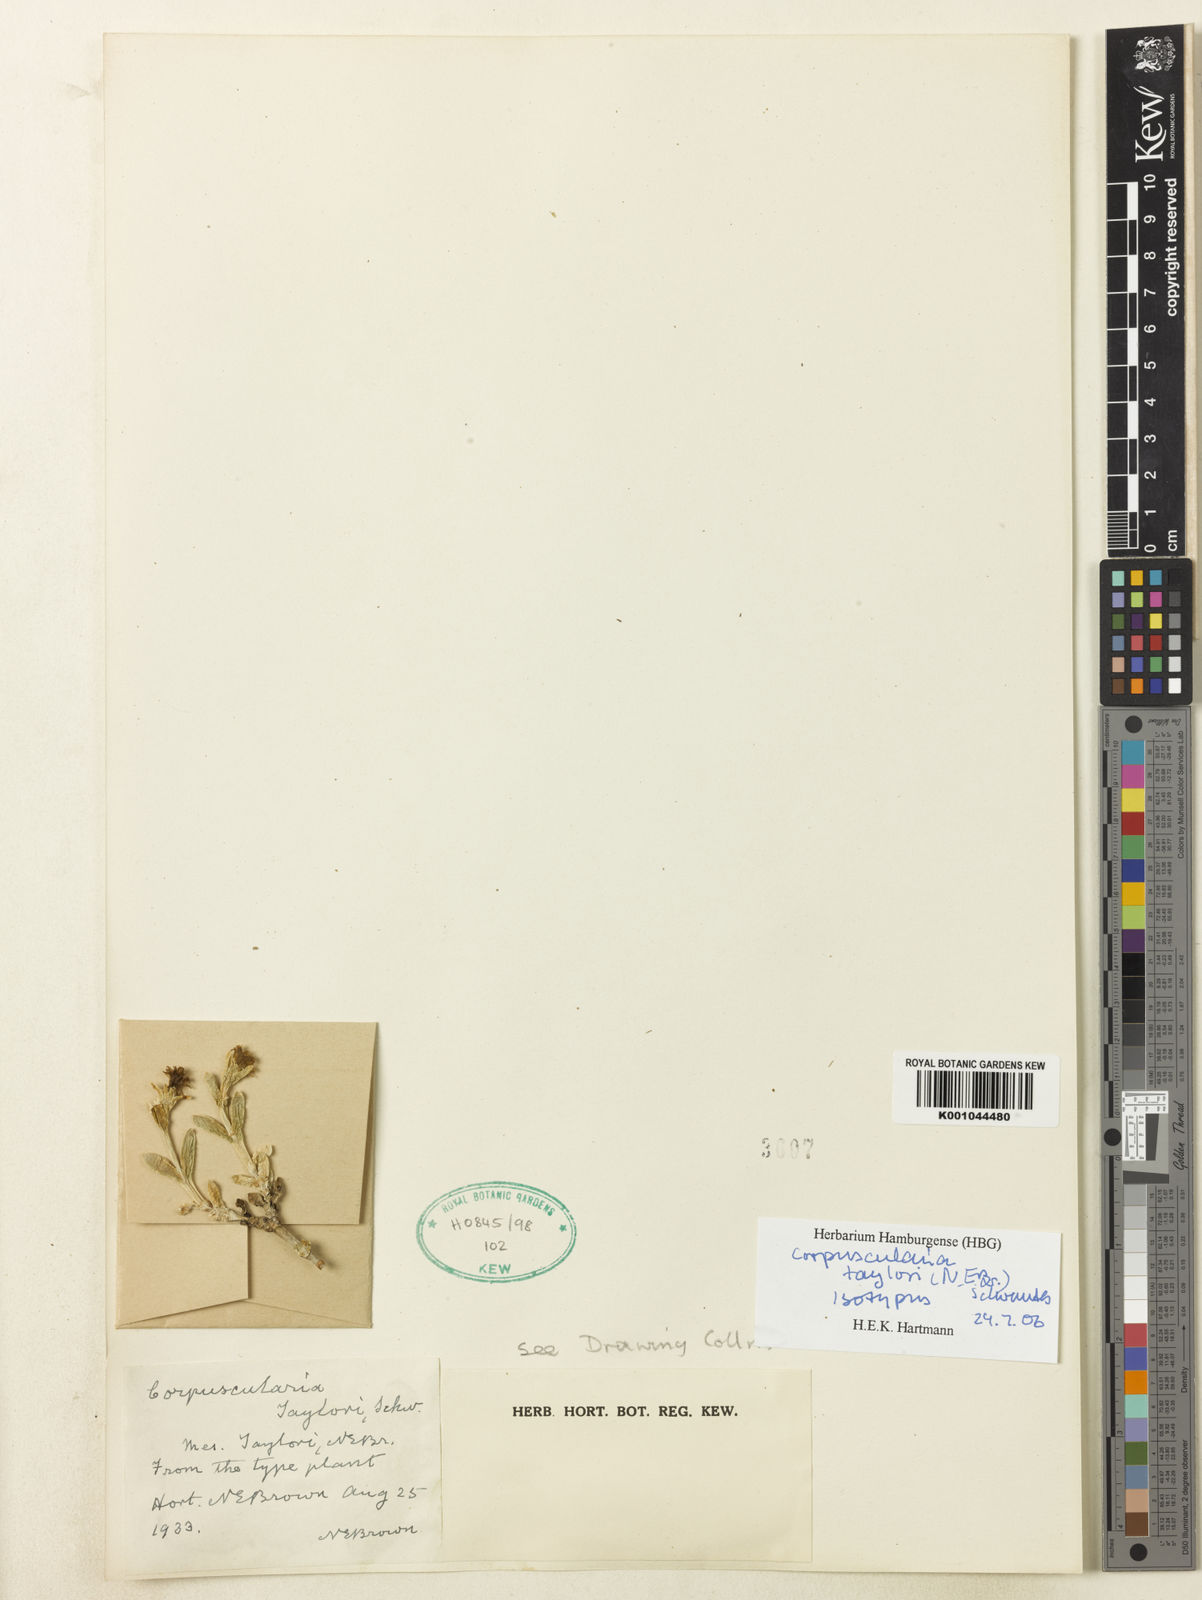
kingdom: Plantae
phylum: Tracheophyta
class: Magnoliopsida
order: Caryophyllales
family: Aizoaceae
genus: Corpuscularia
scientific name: Corpuscularia taylorii
